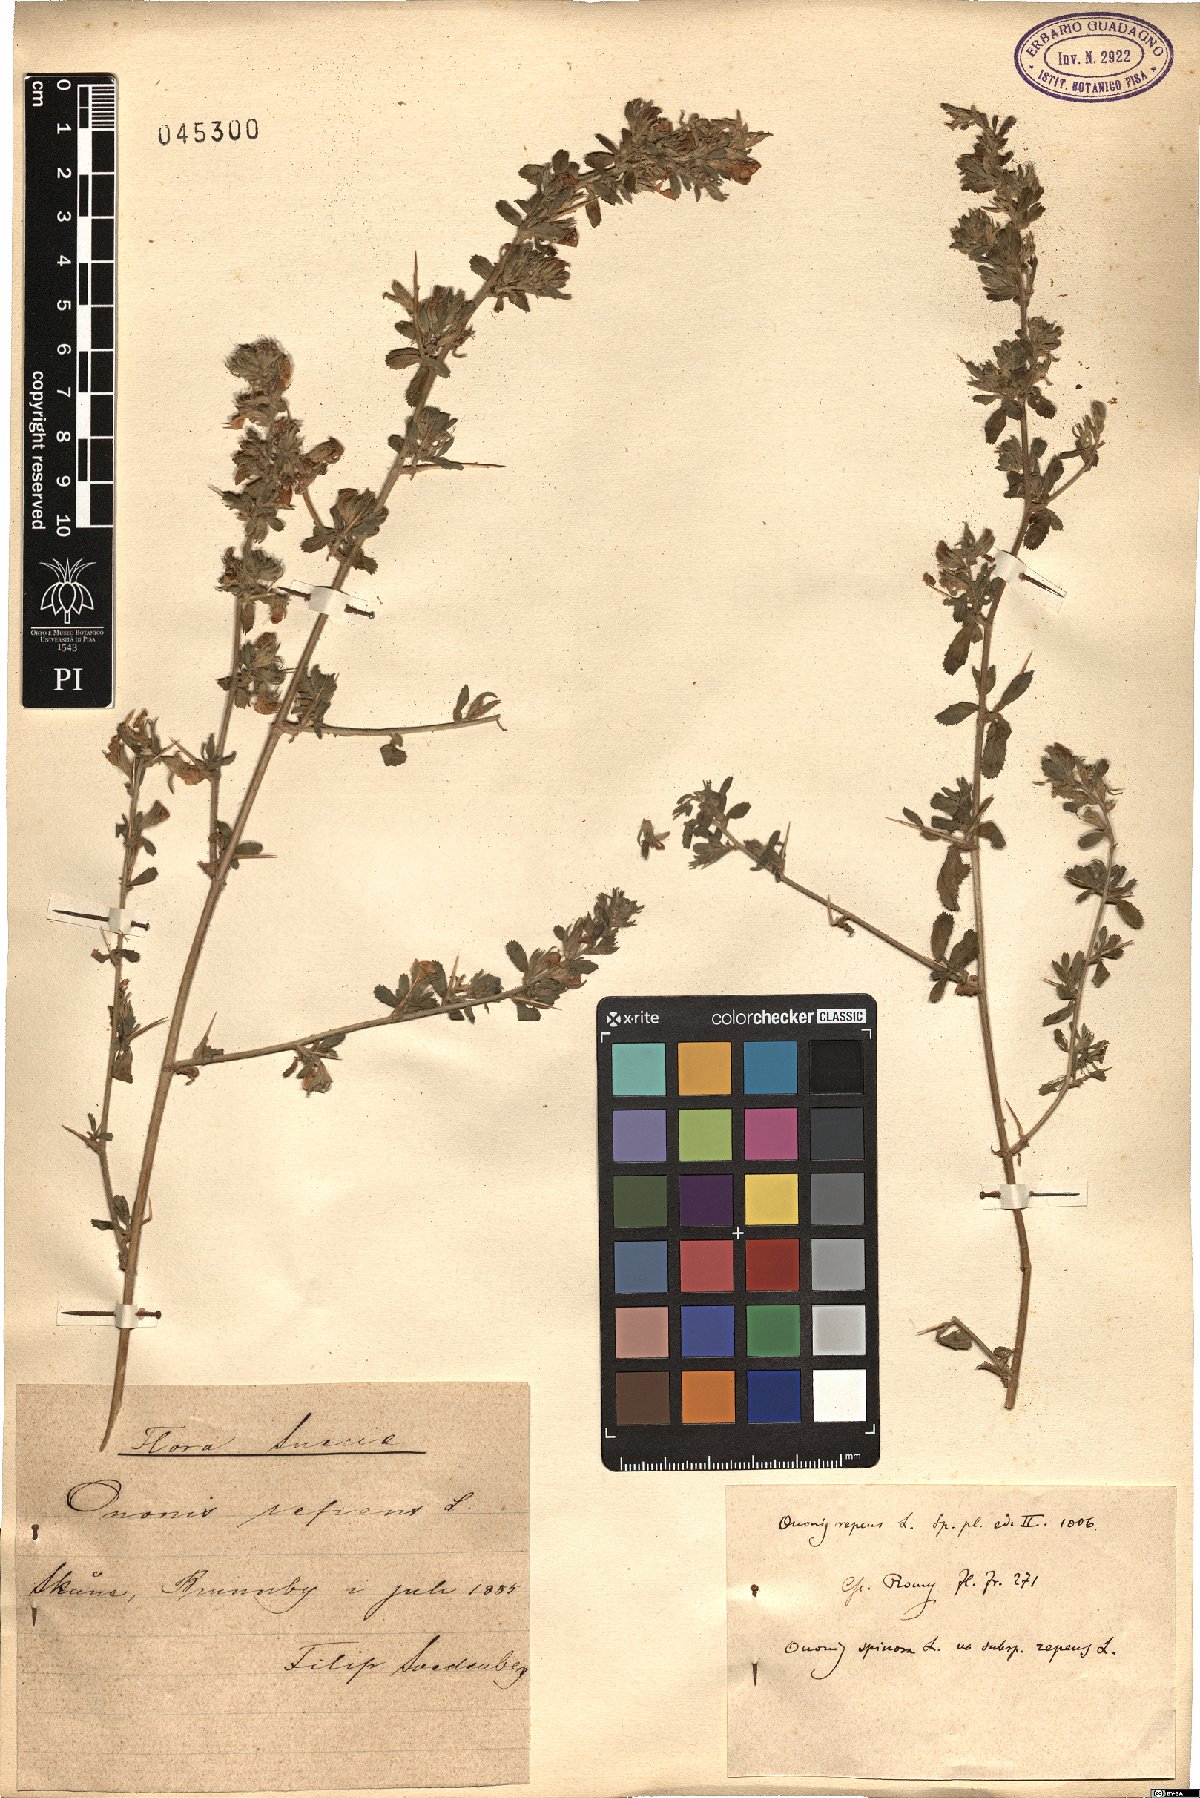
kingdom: Plantae
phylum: Tracheophyta
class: Magnoliopsida
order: Fabales
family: Fabaceae
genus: Ononis
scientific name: Ononis spinosa
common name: Spiny restharrow
